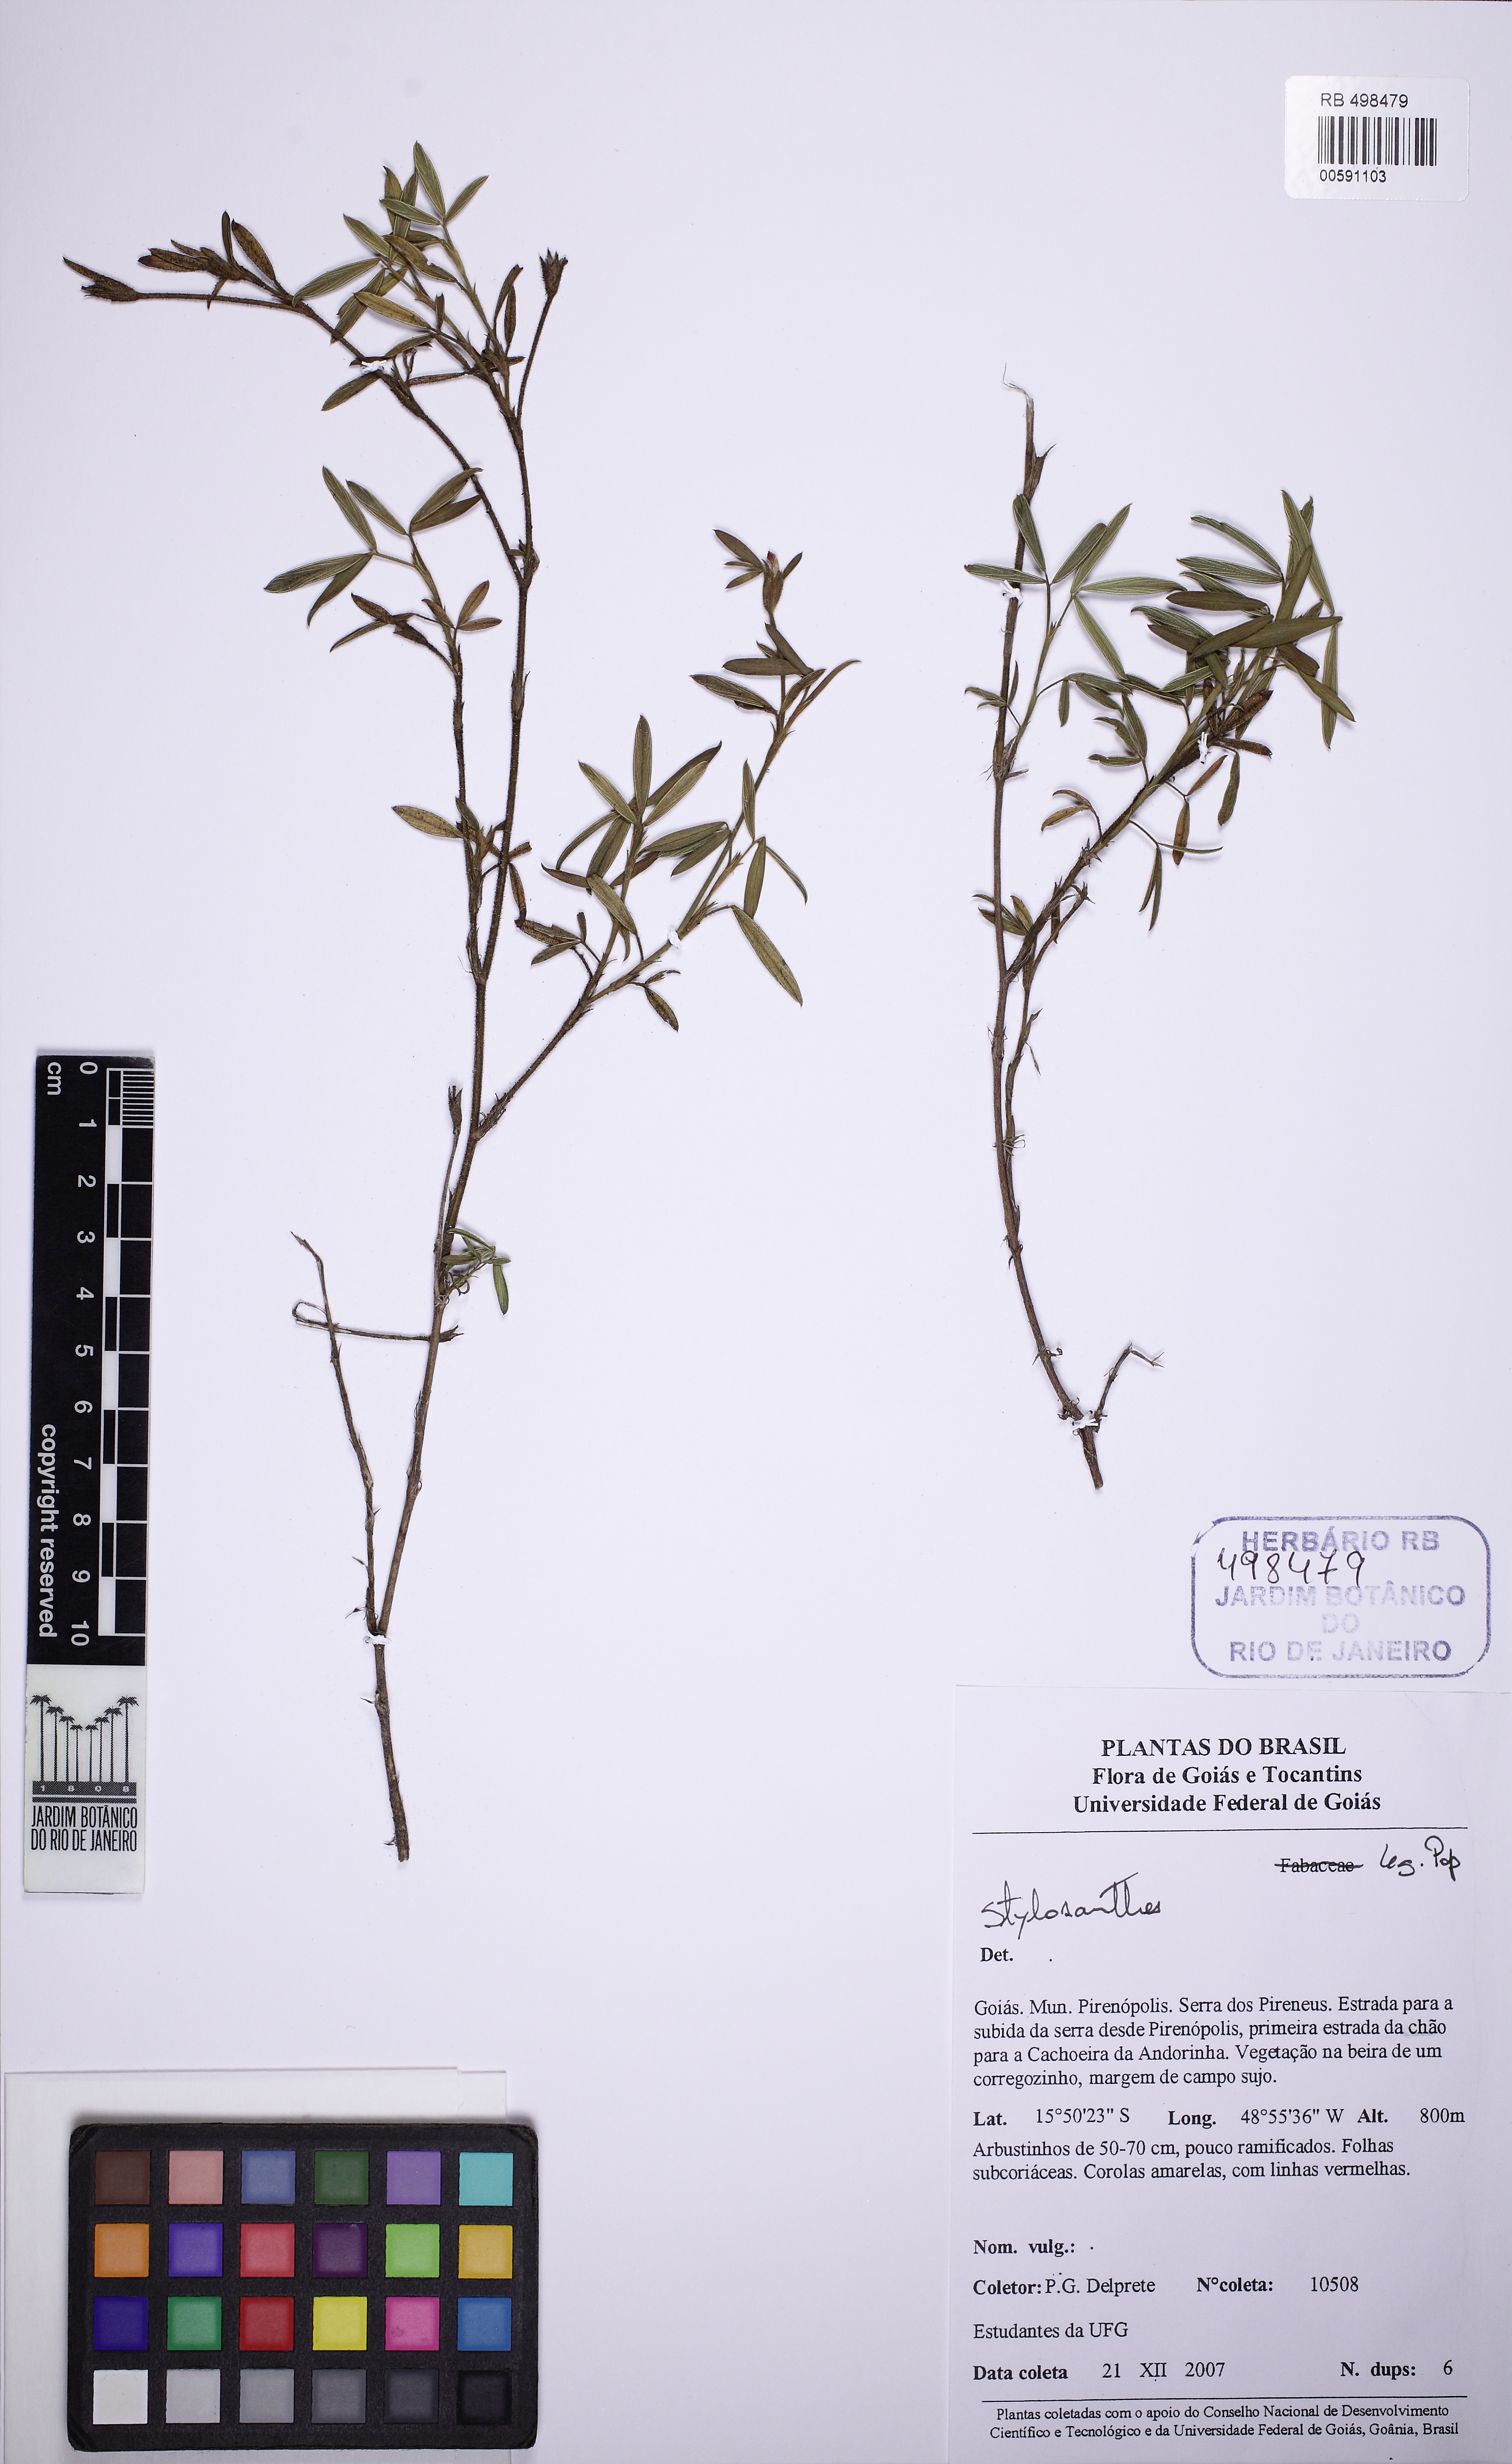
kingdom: Plantae
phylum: Tracheophyta
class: Magnoliopsida
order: Fabales
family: Fabaceae
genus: Stylosanthes
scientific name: Stylosanthes
